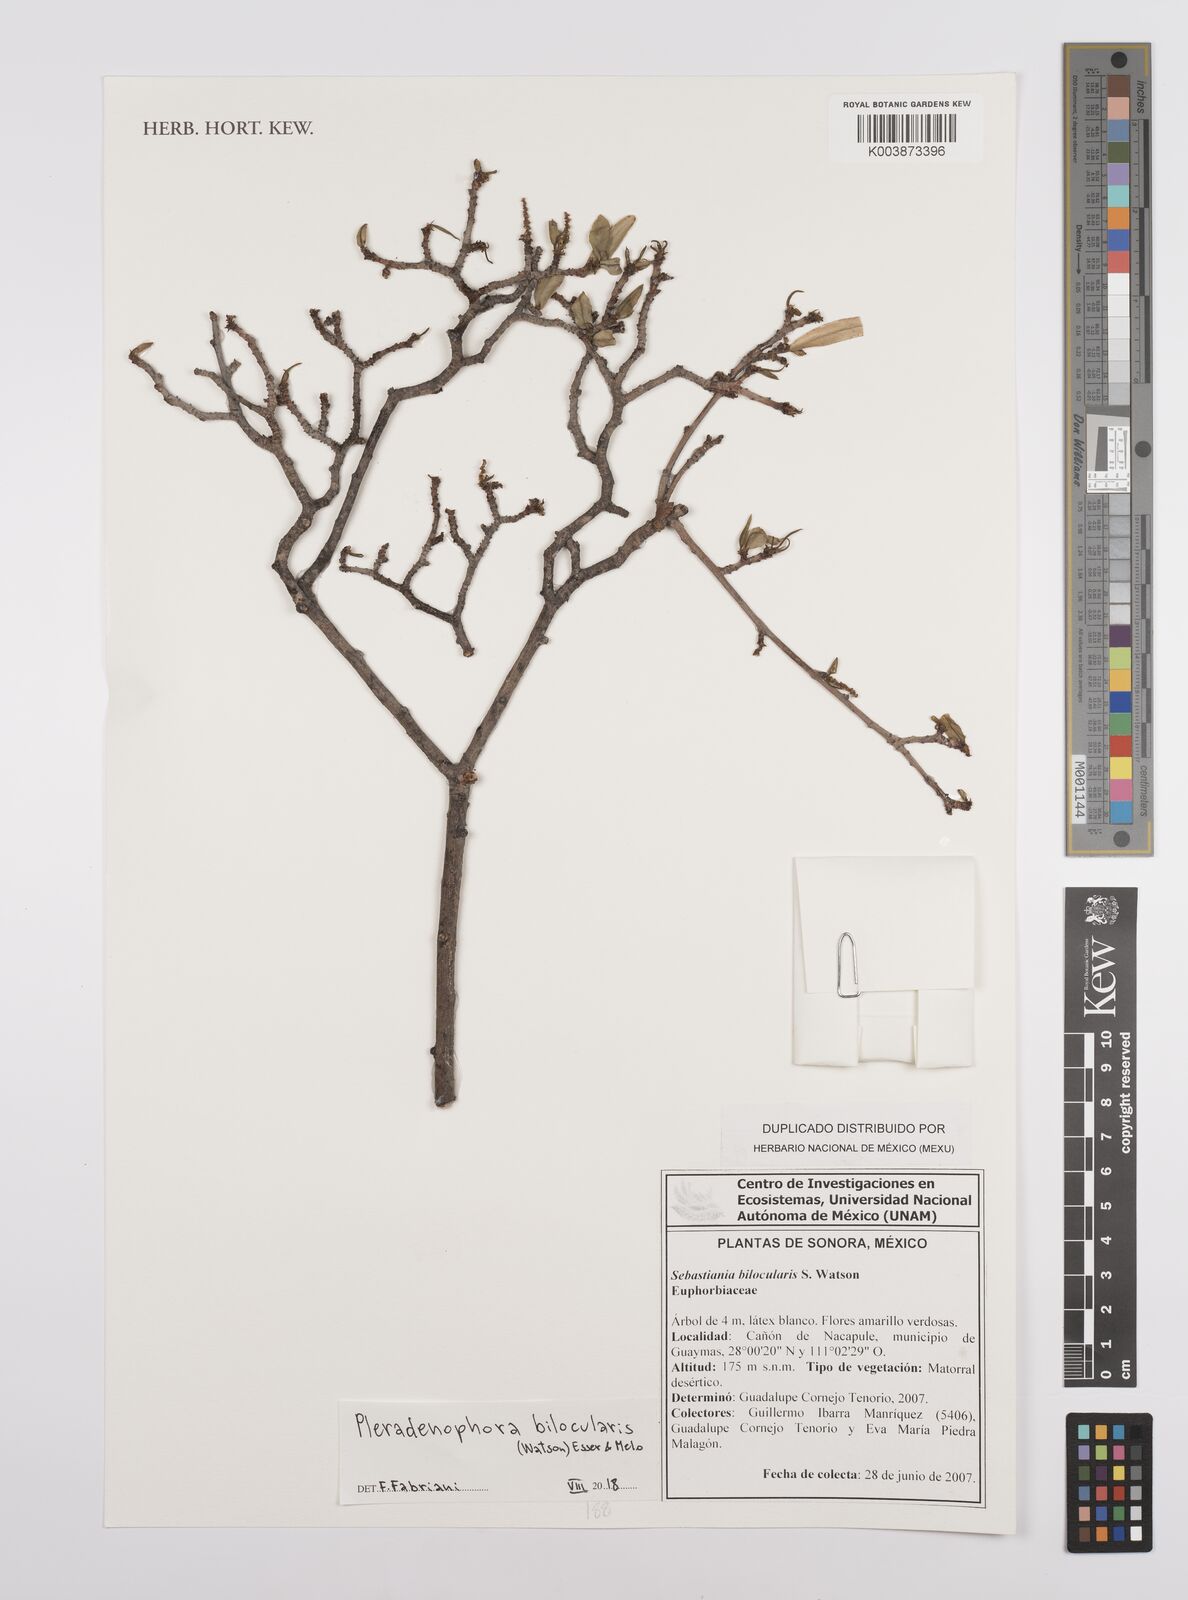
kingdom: Plantae
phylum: Tracheophyta
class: Magnoliopsida
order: Malpighiales
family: Euphorbiaceae
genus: Pleradenophora
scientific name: Pleradenophora bilocularis
